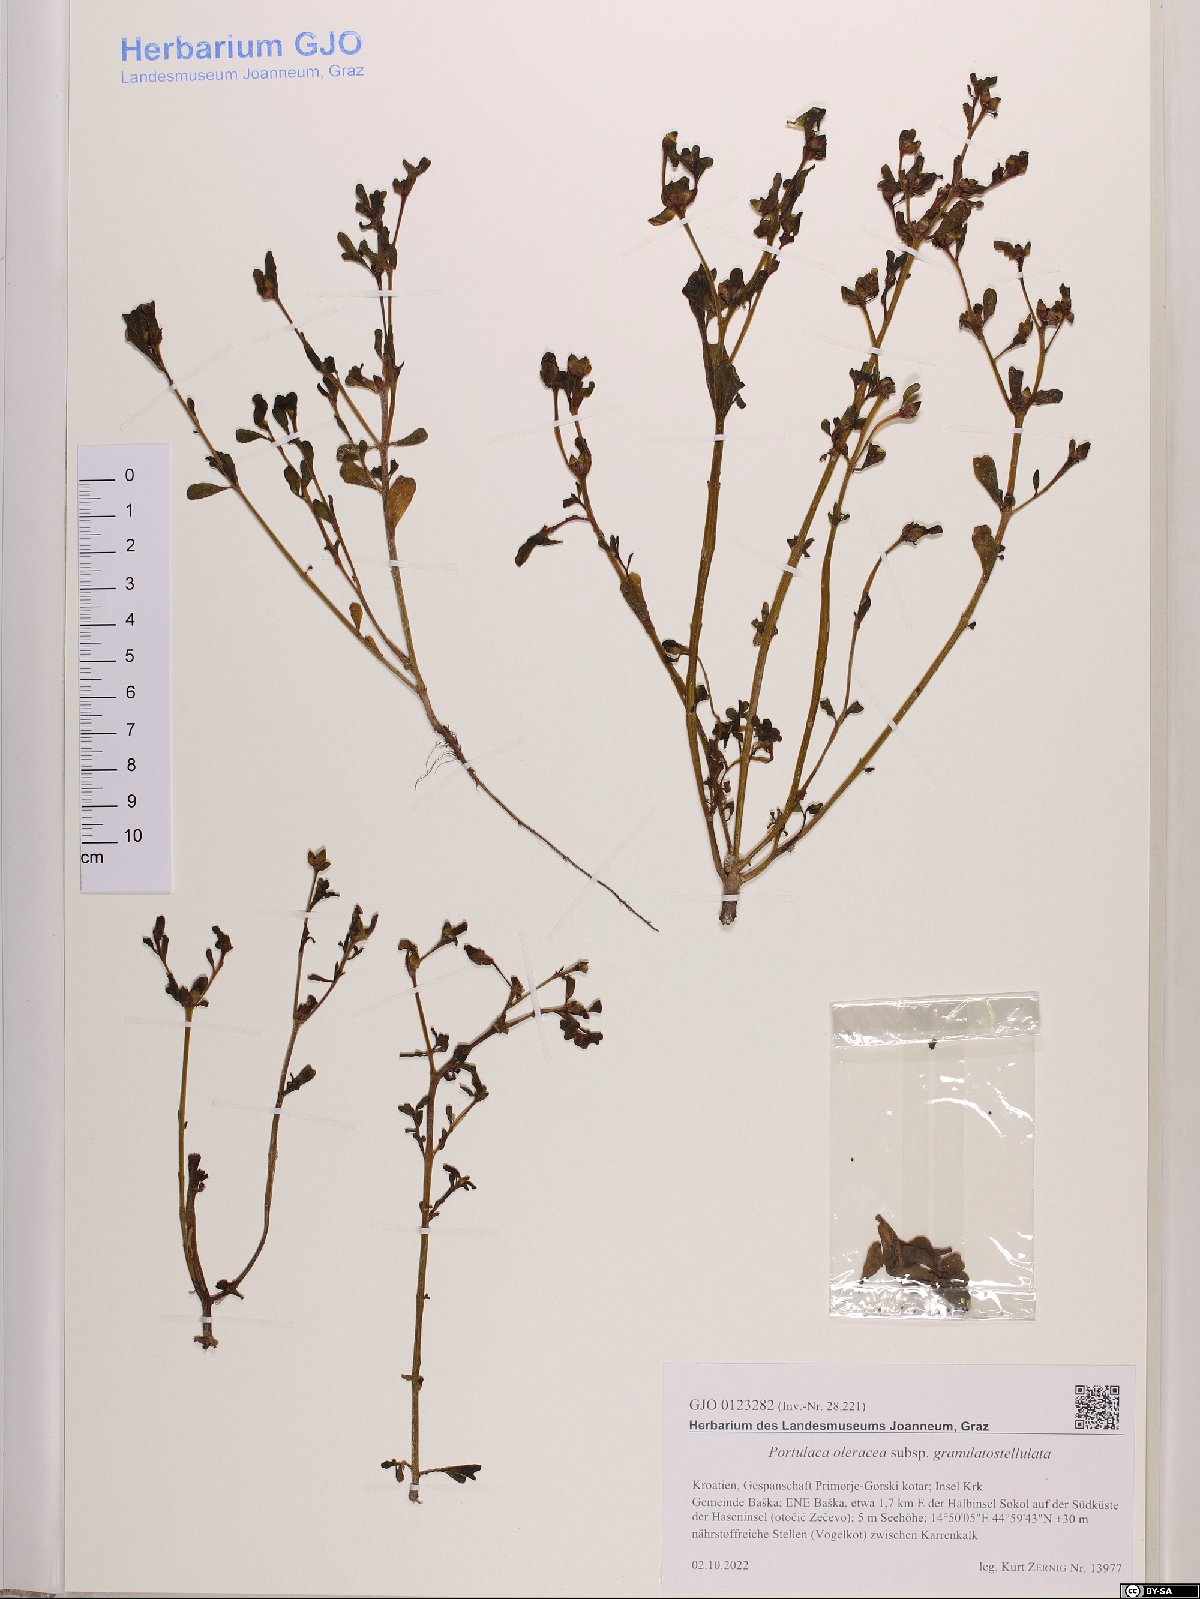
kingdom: Plantae
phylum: Tracheophyta
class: Magnoliopsida
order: Caryophyllales
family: Portulacaceae
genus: Portulaca
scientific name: Portulaca granulatostellulata
